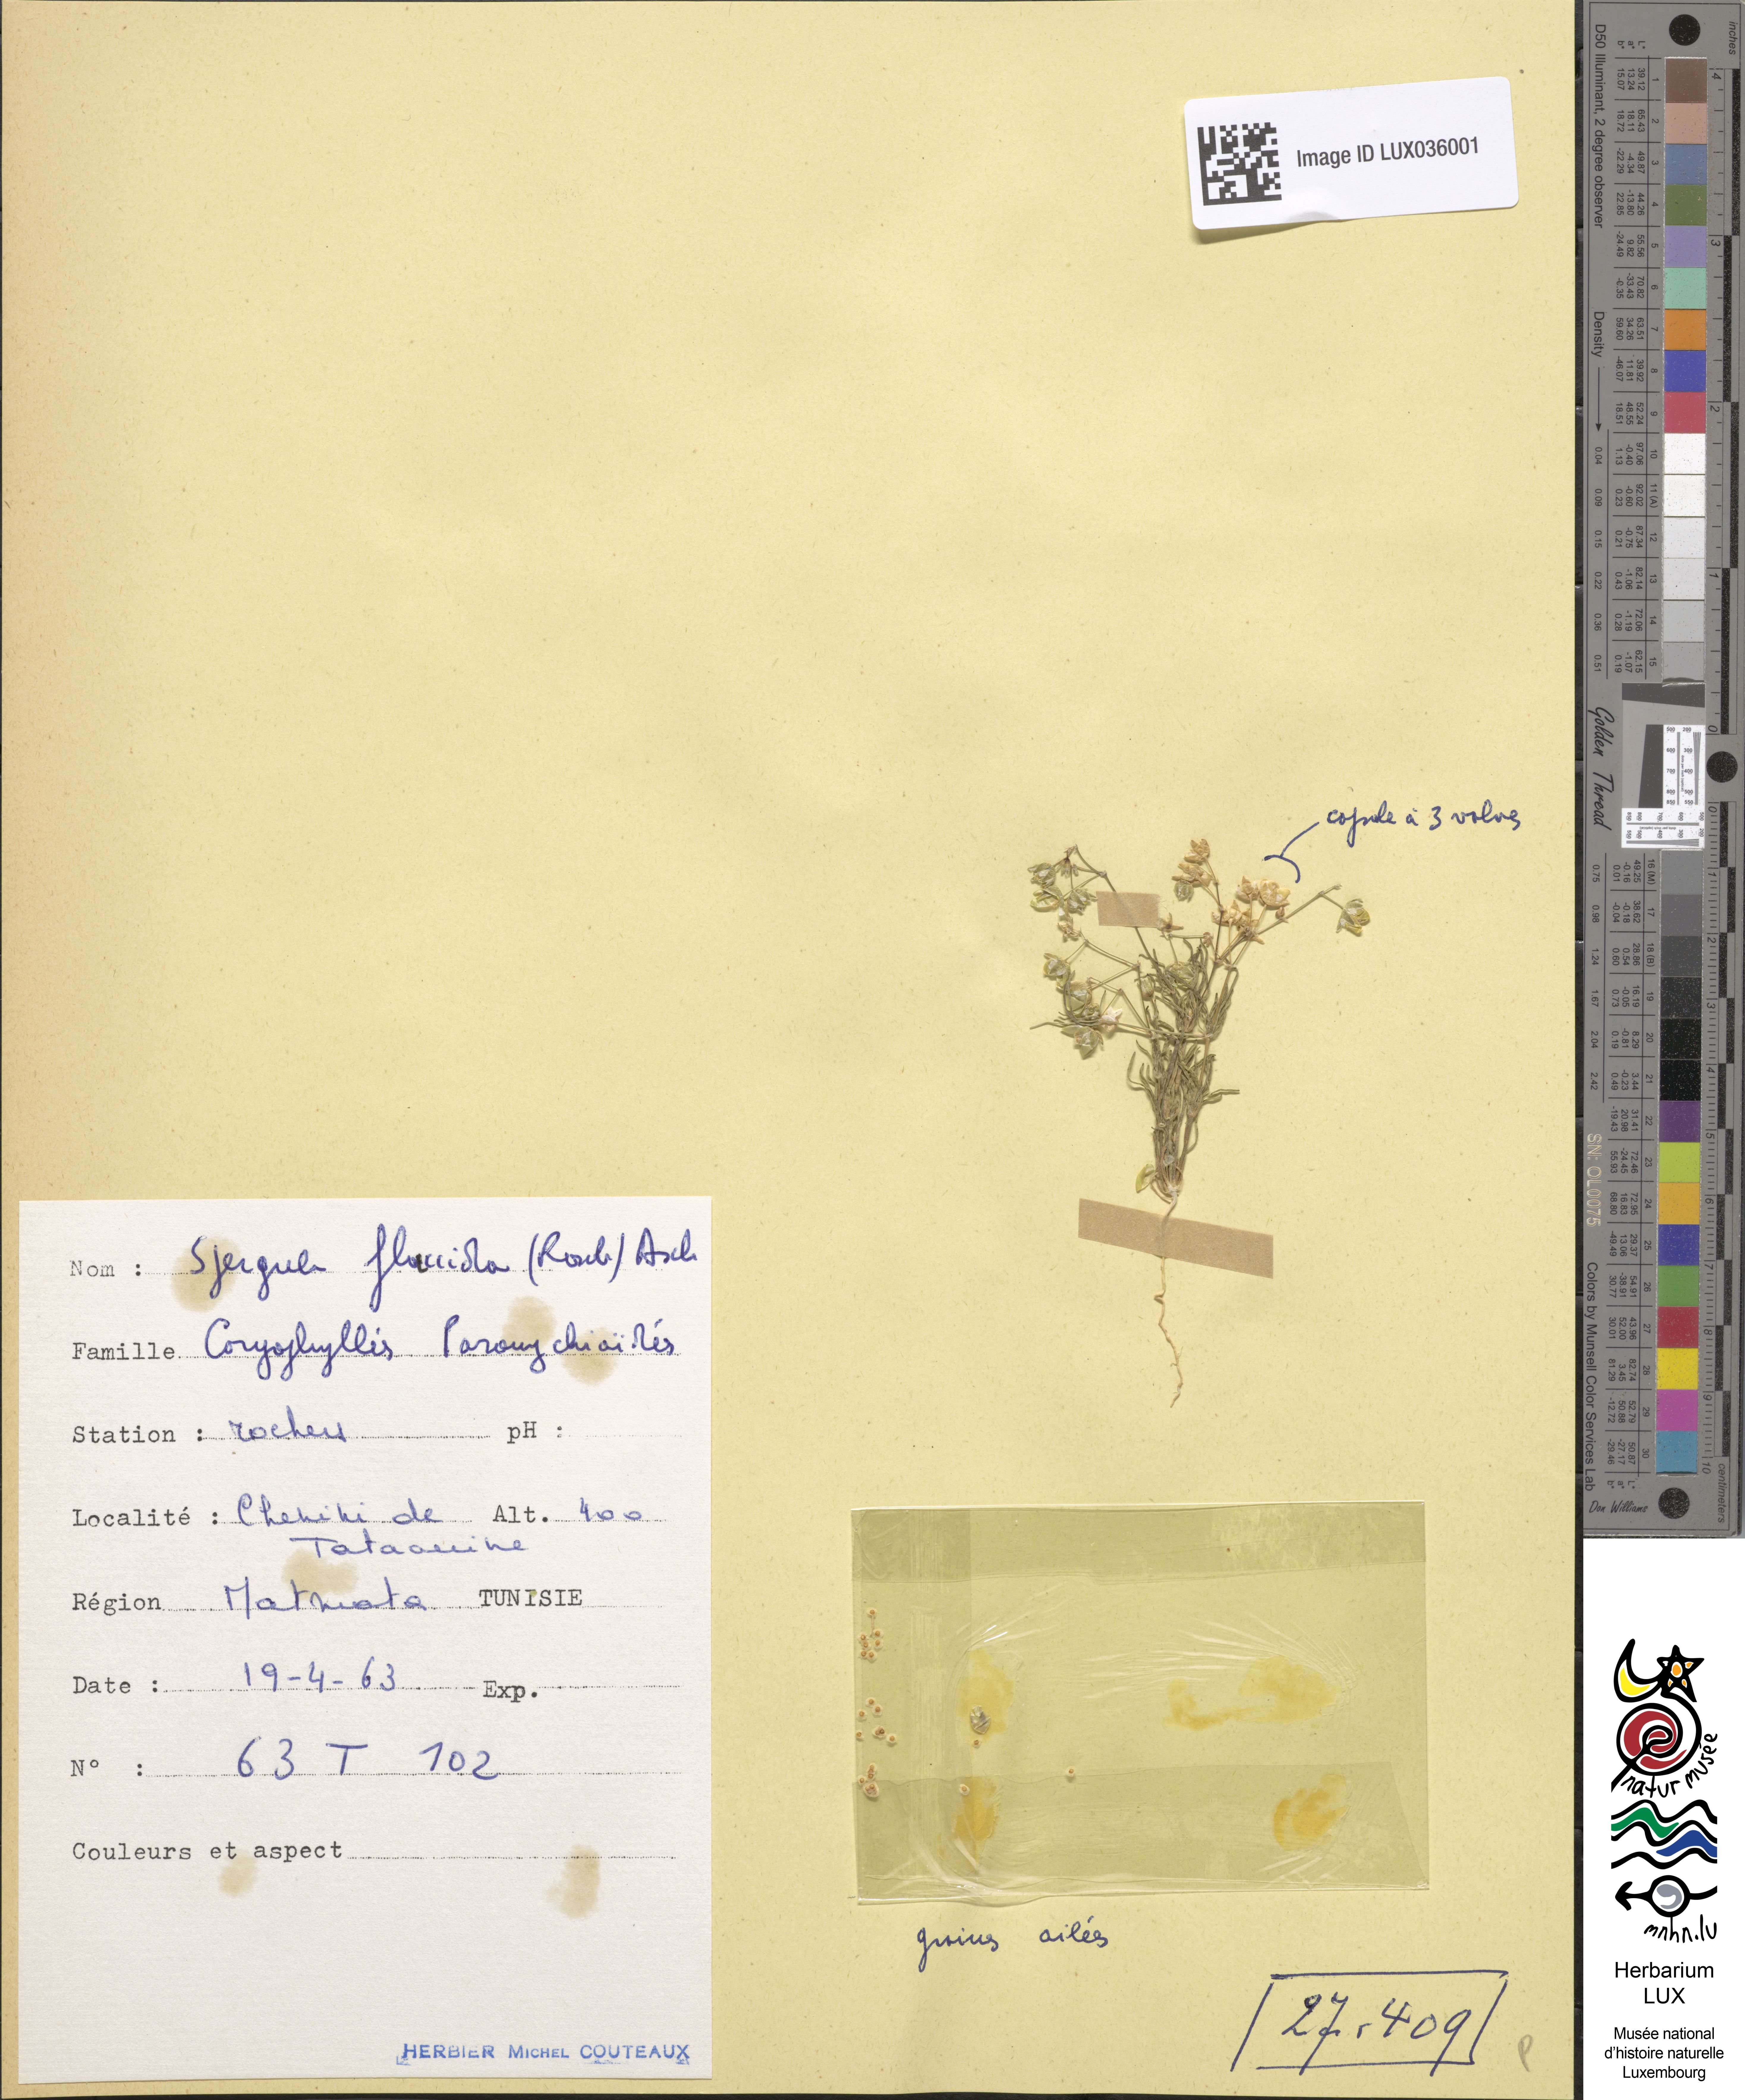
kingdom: Plantae
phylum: Tracheophyta
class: Magnoliopsida
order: Caryophyllales
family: Caryophyllaceae
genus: Spergularia
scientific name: Spergularia flaccida
